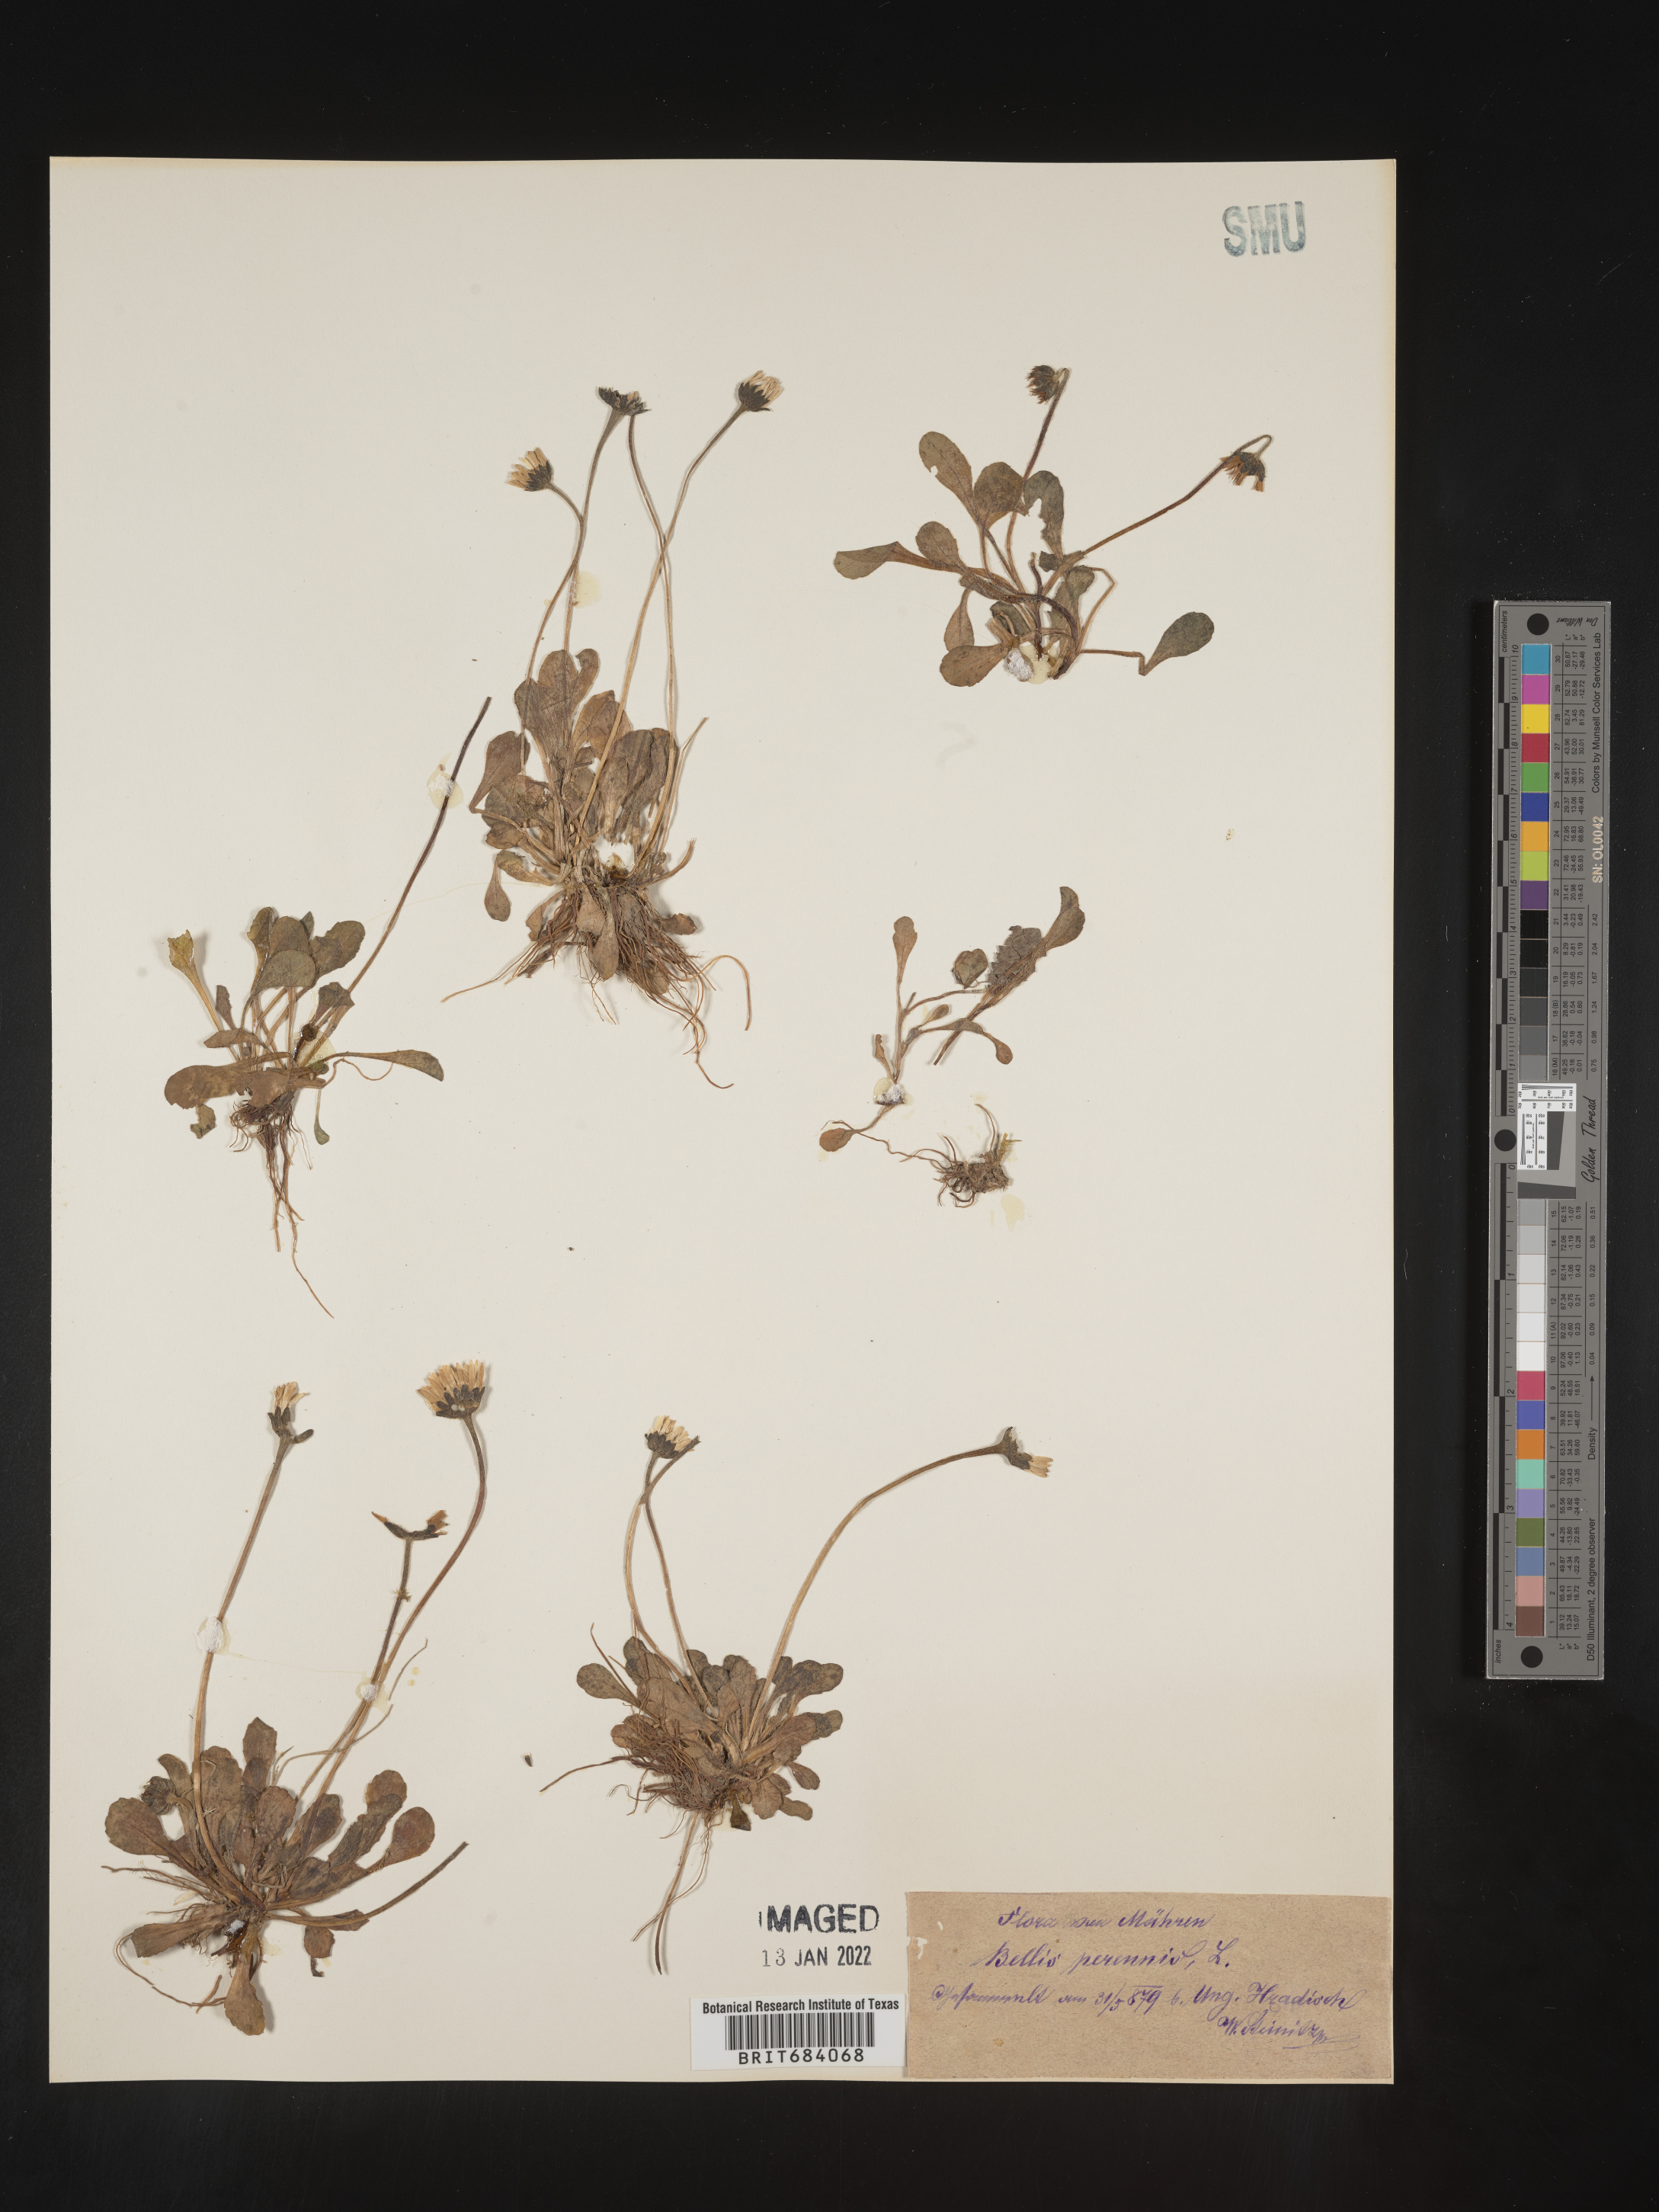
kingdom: Plantae
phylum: Tracheophyta
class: Magnoliopsida
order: Asterales
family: Asteraceae
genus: Bellis
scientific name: Bellis
